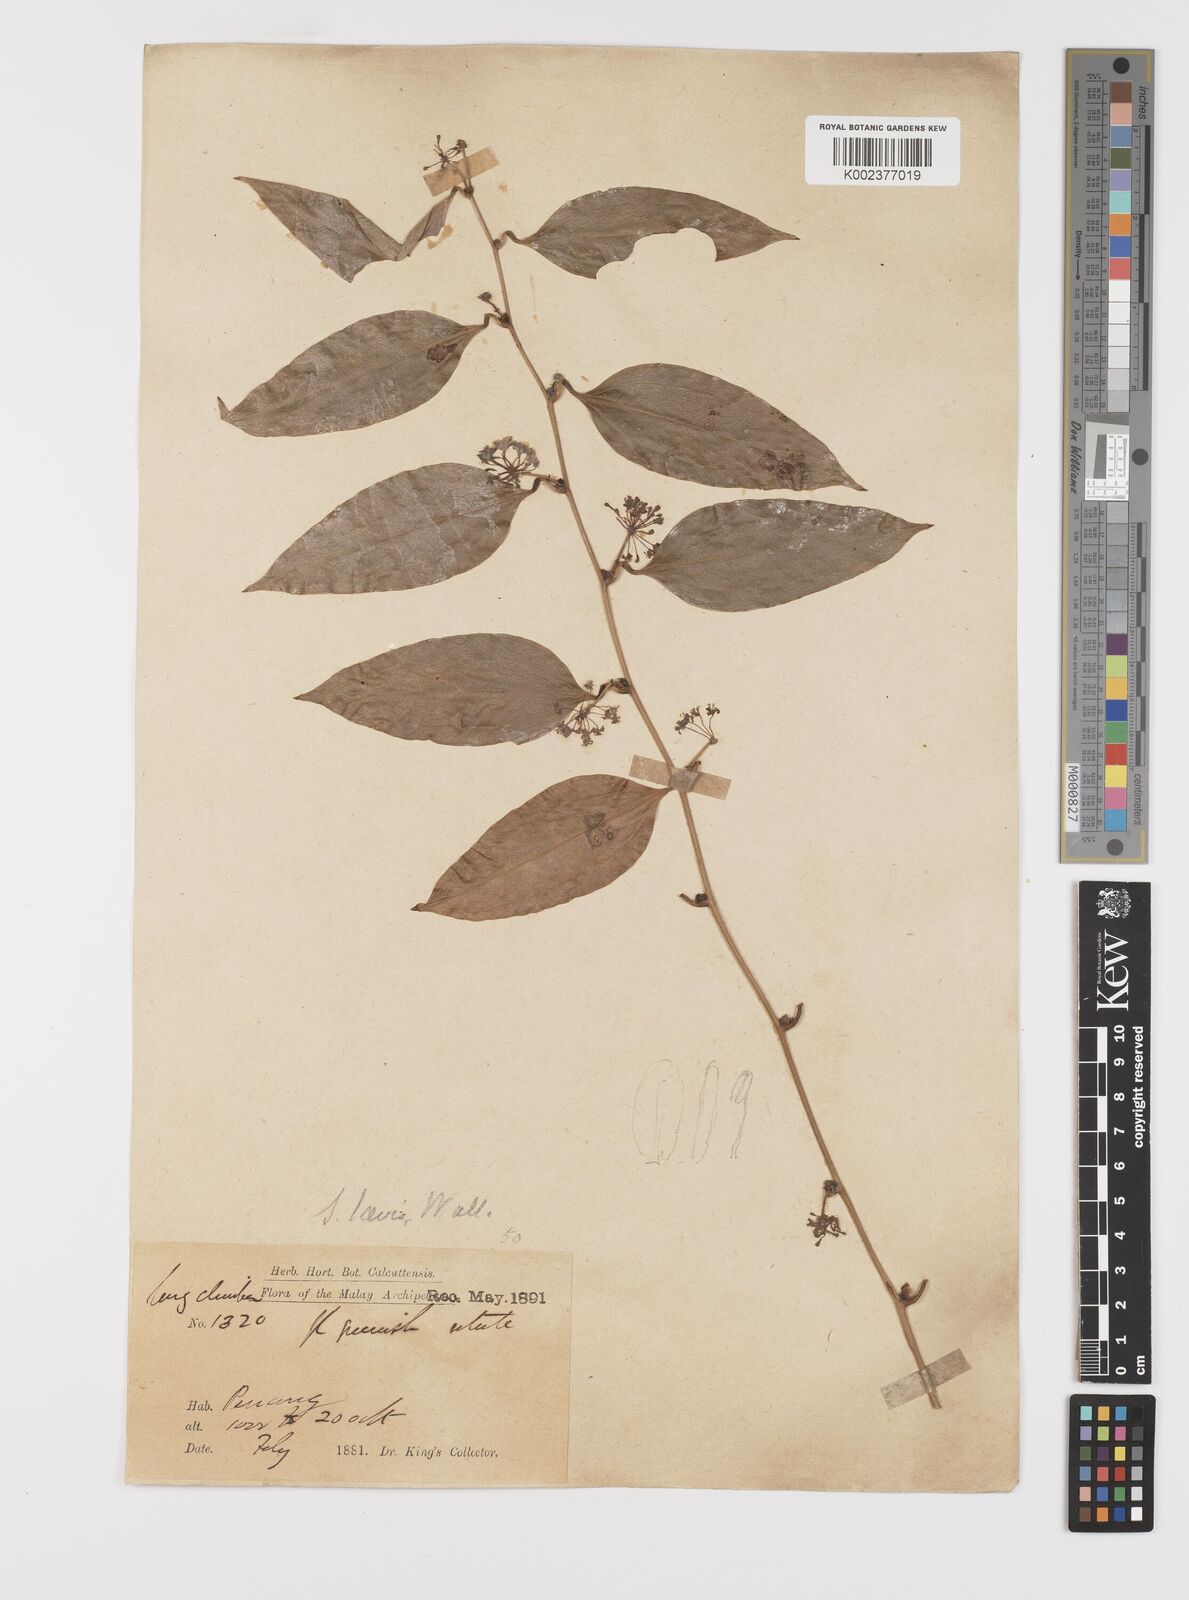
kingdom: Plantae
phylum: Tracheophyta
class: Liliopsida
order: Liliales
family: Smilacaceae
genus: Smilax
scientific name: Smilax laevis
